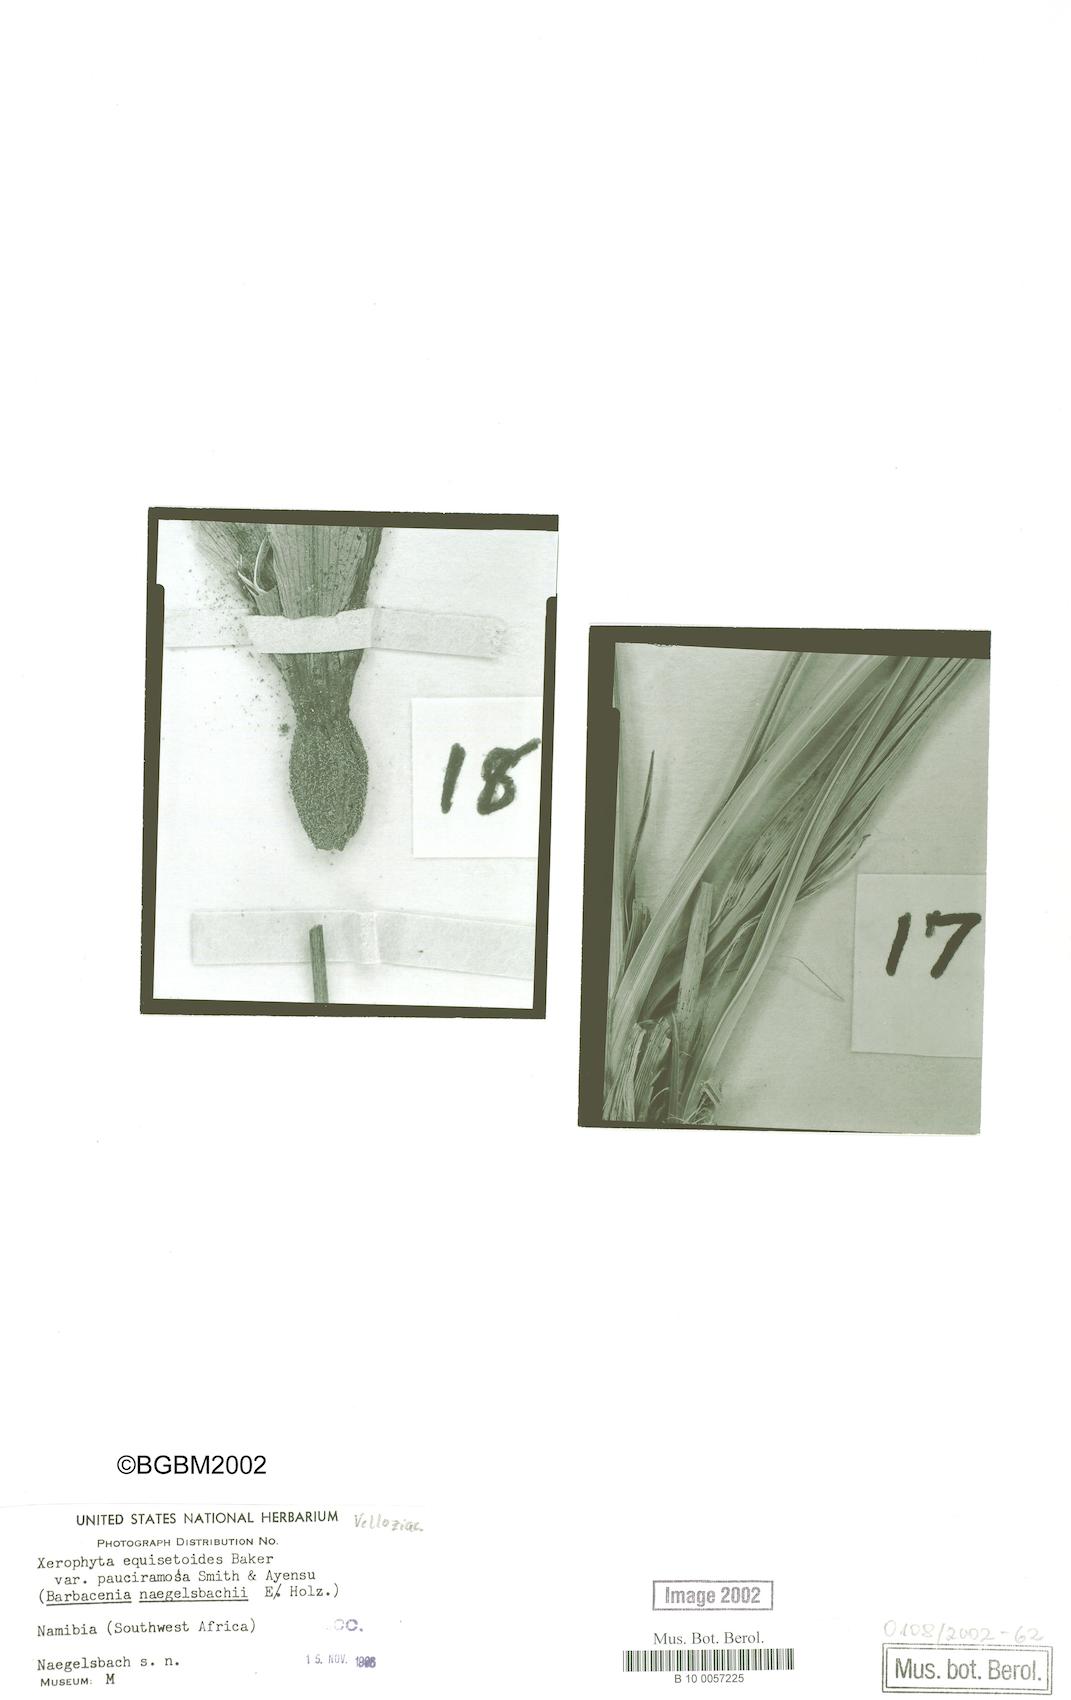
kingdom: Plantae
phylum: Tracheophyta
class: Liliopsida
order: Pandanales
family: Velloziaceae
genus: Xerophyta
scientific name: Xerophyta pauciramosa
